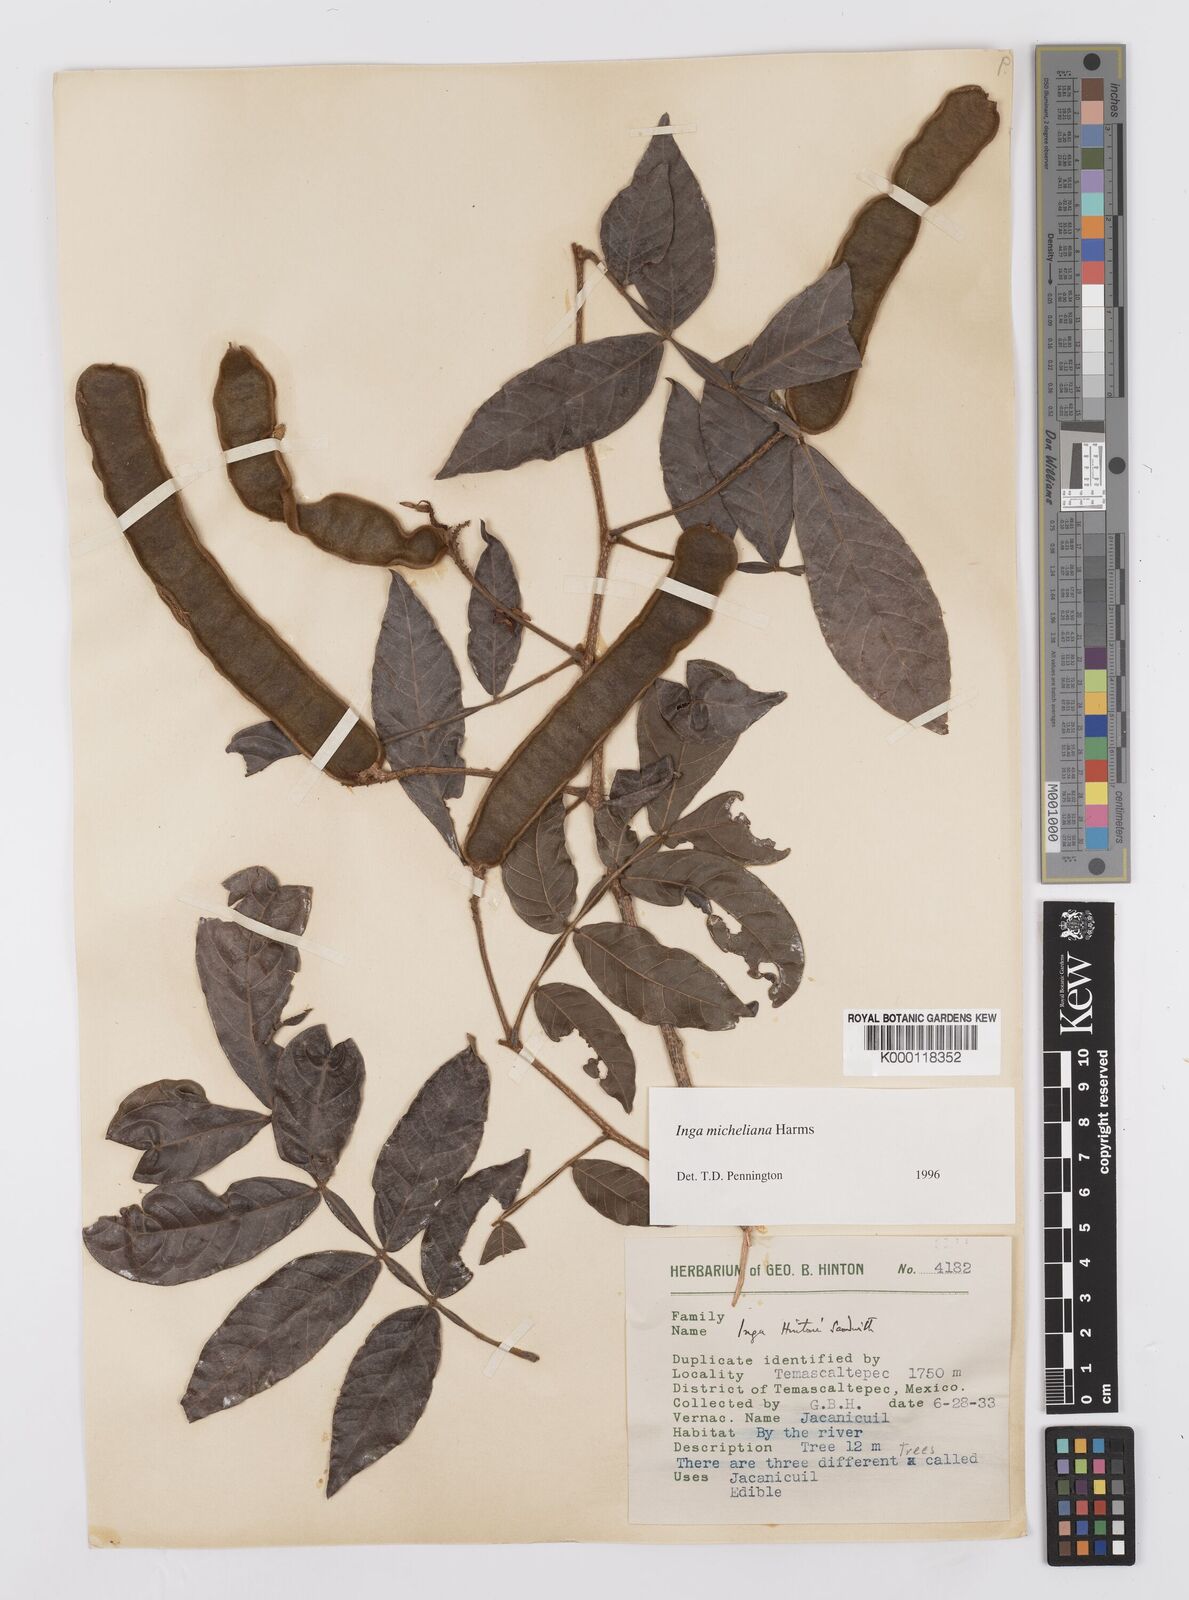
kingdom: Plantae
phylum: Tracheophyta
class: Magnoliopsida
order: Fabales
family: Fabaceae
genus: Inga
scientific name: Inga flexuosa
